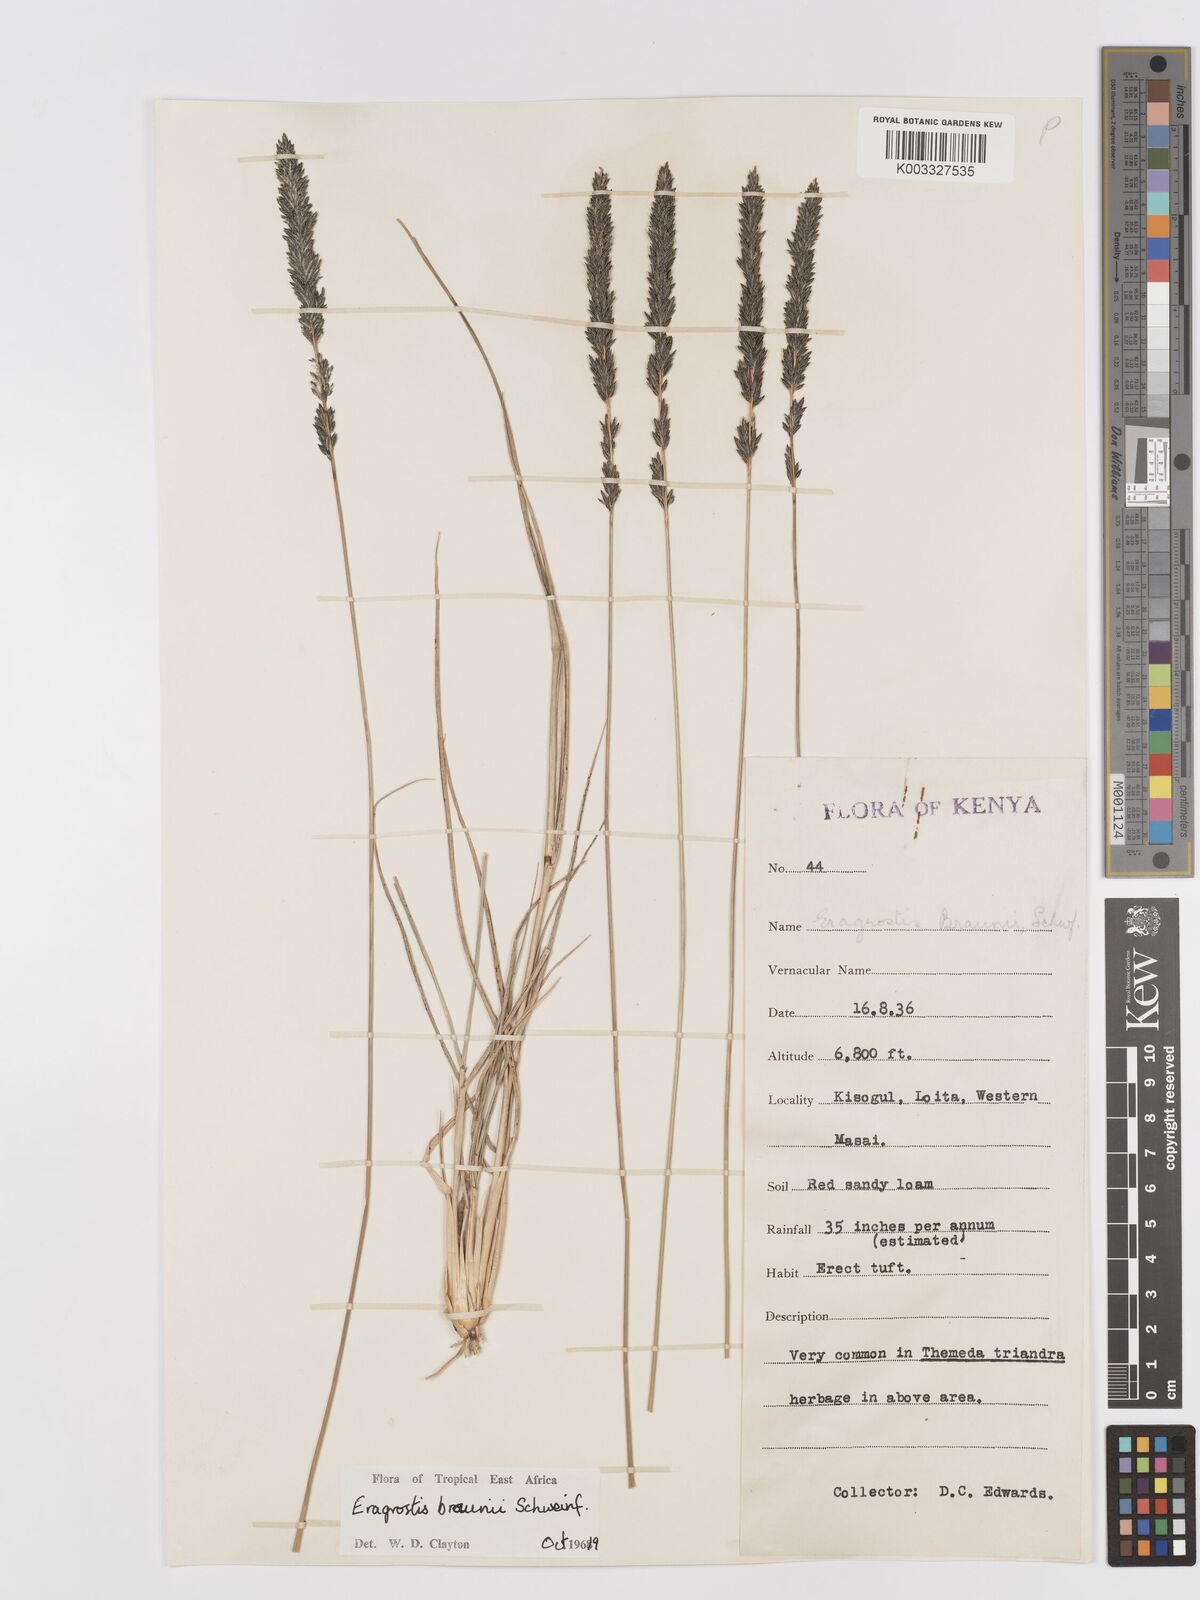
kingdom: Plantae
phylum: Tracheophyta
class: Liliopsida
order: Poales
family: Poaceae
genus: Eragrostis
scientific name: Eragrostis braunii
